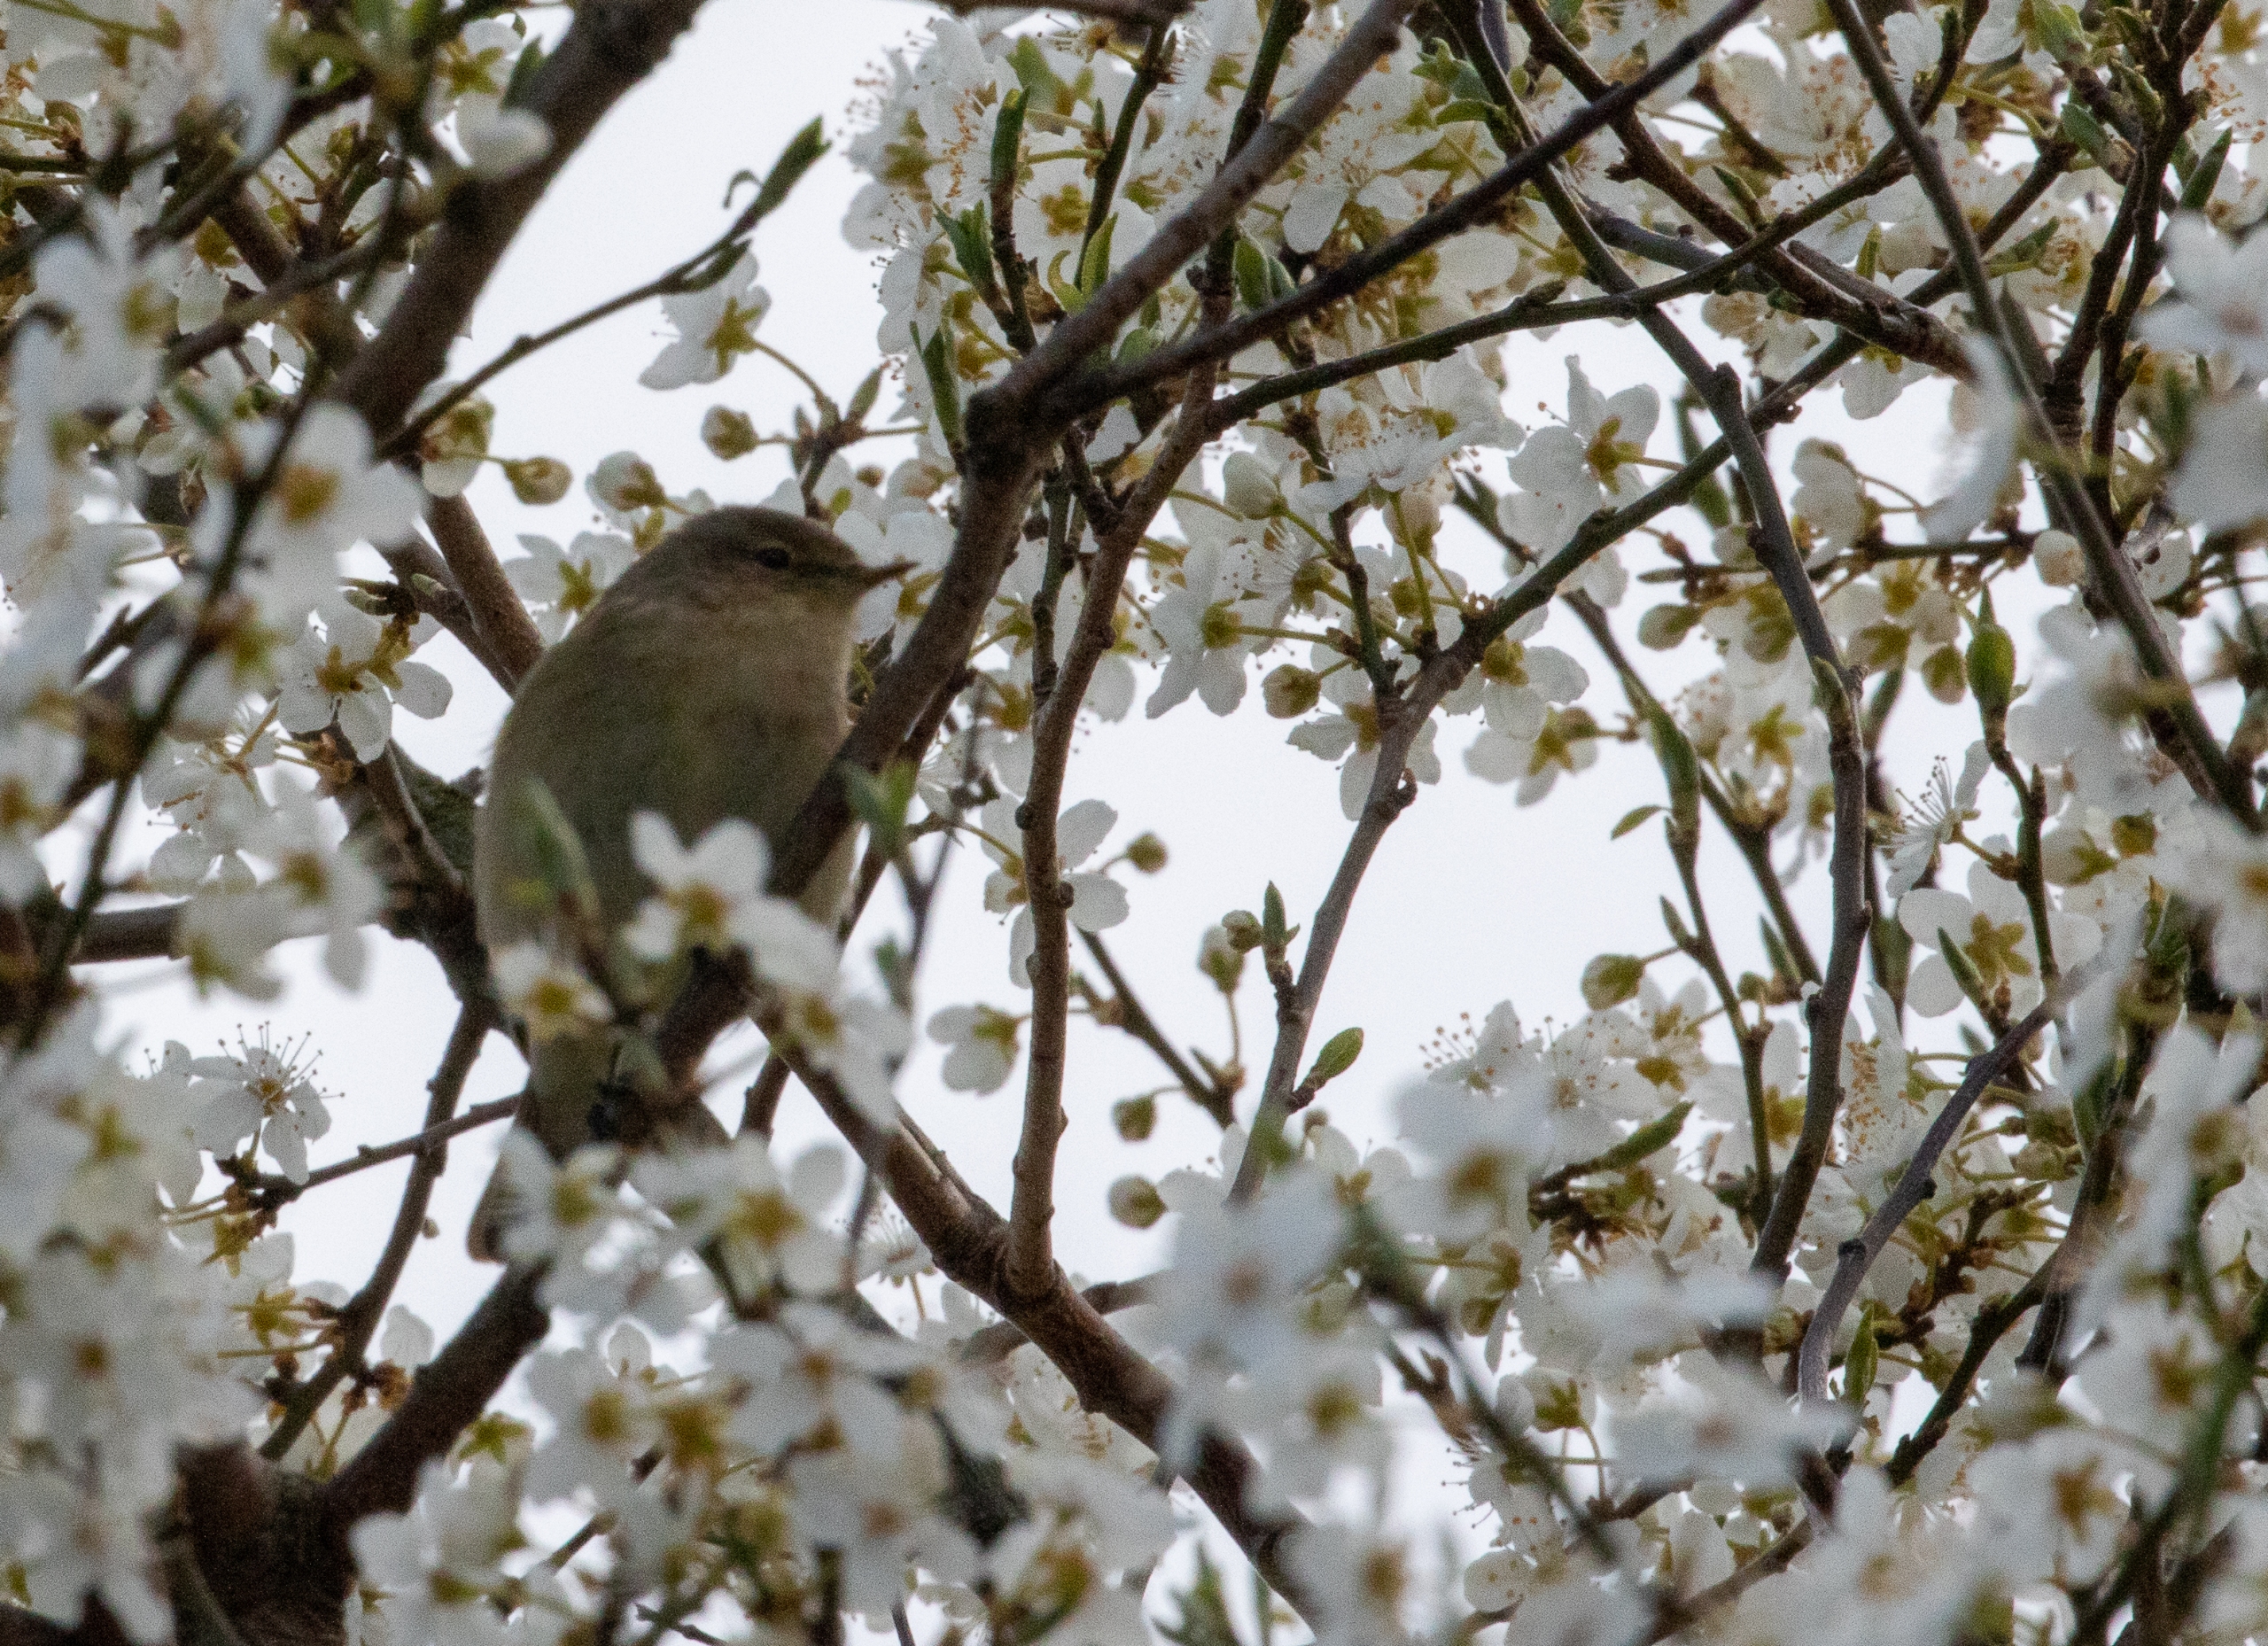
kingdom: Animalia
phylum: Chordata
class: Aves
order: Passeriformes
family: Phylloscopidae
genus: Phylloscopus
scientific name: Phylloscopus collybita
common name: Gransanger
